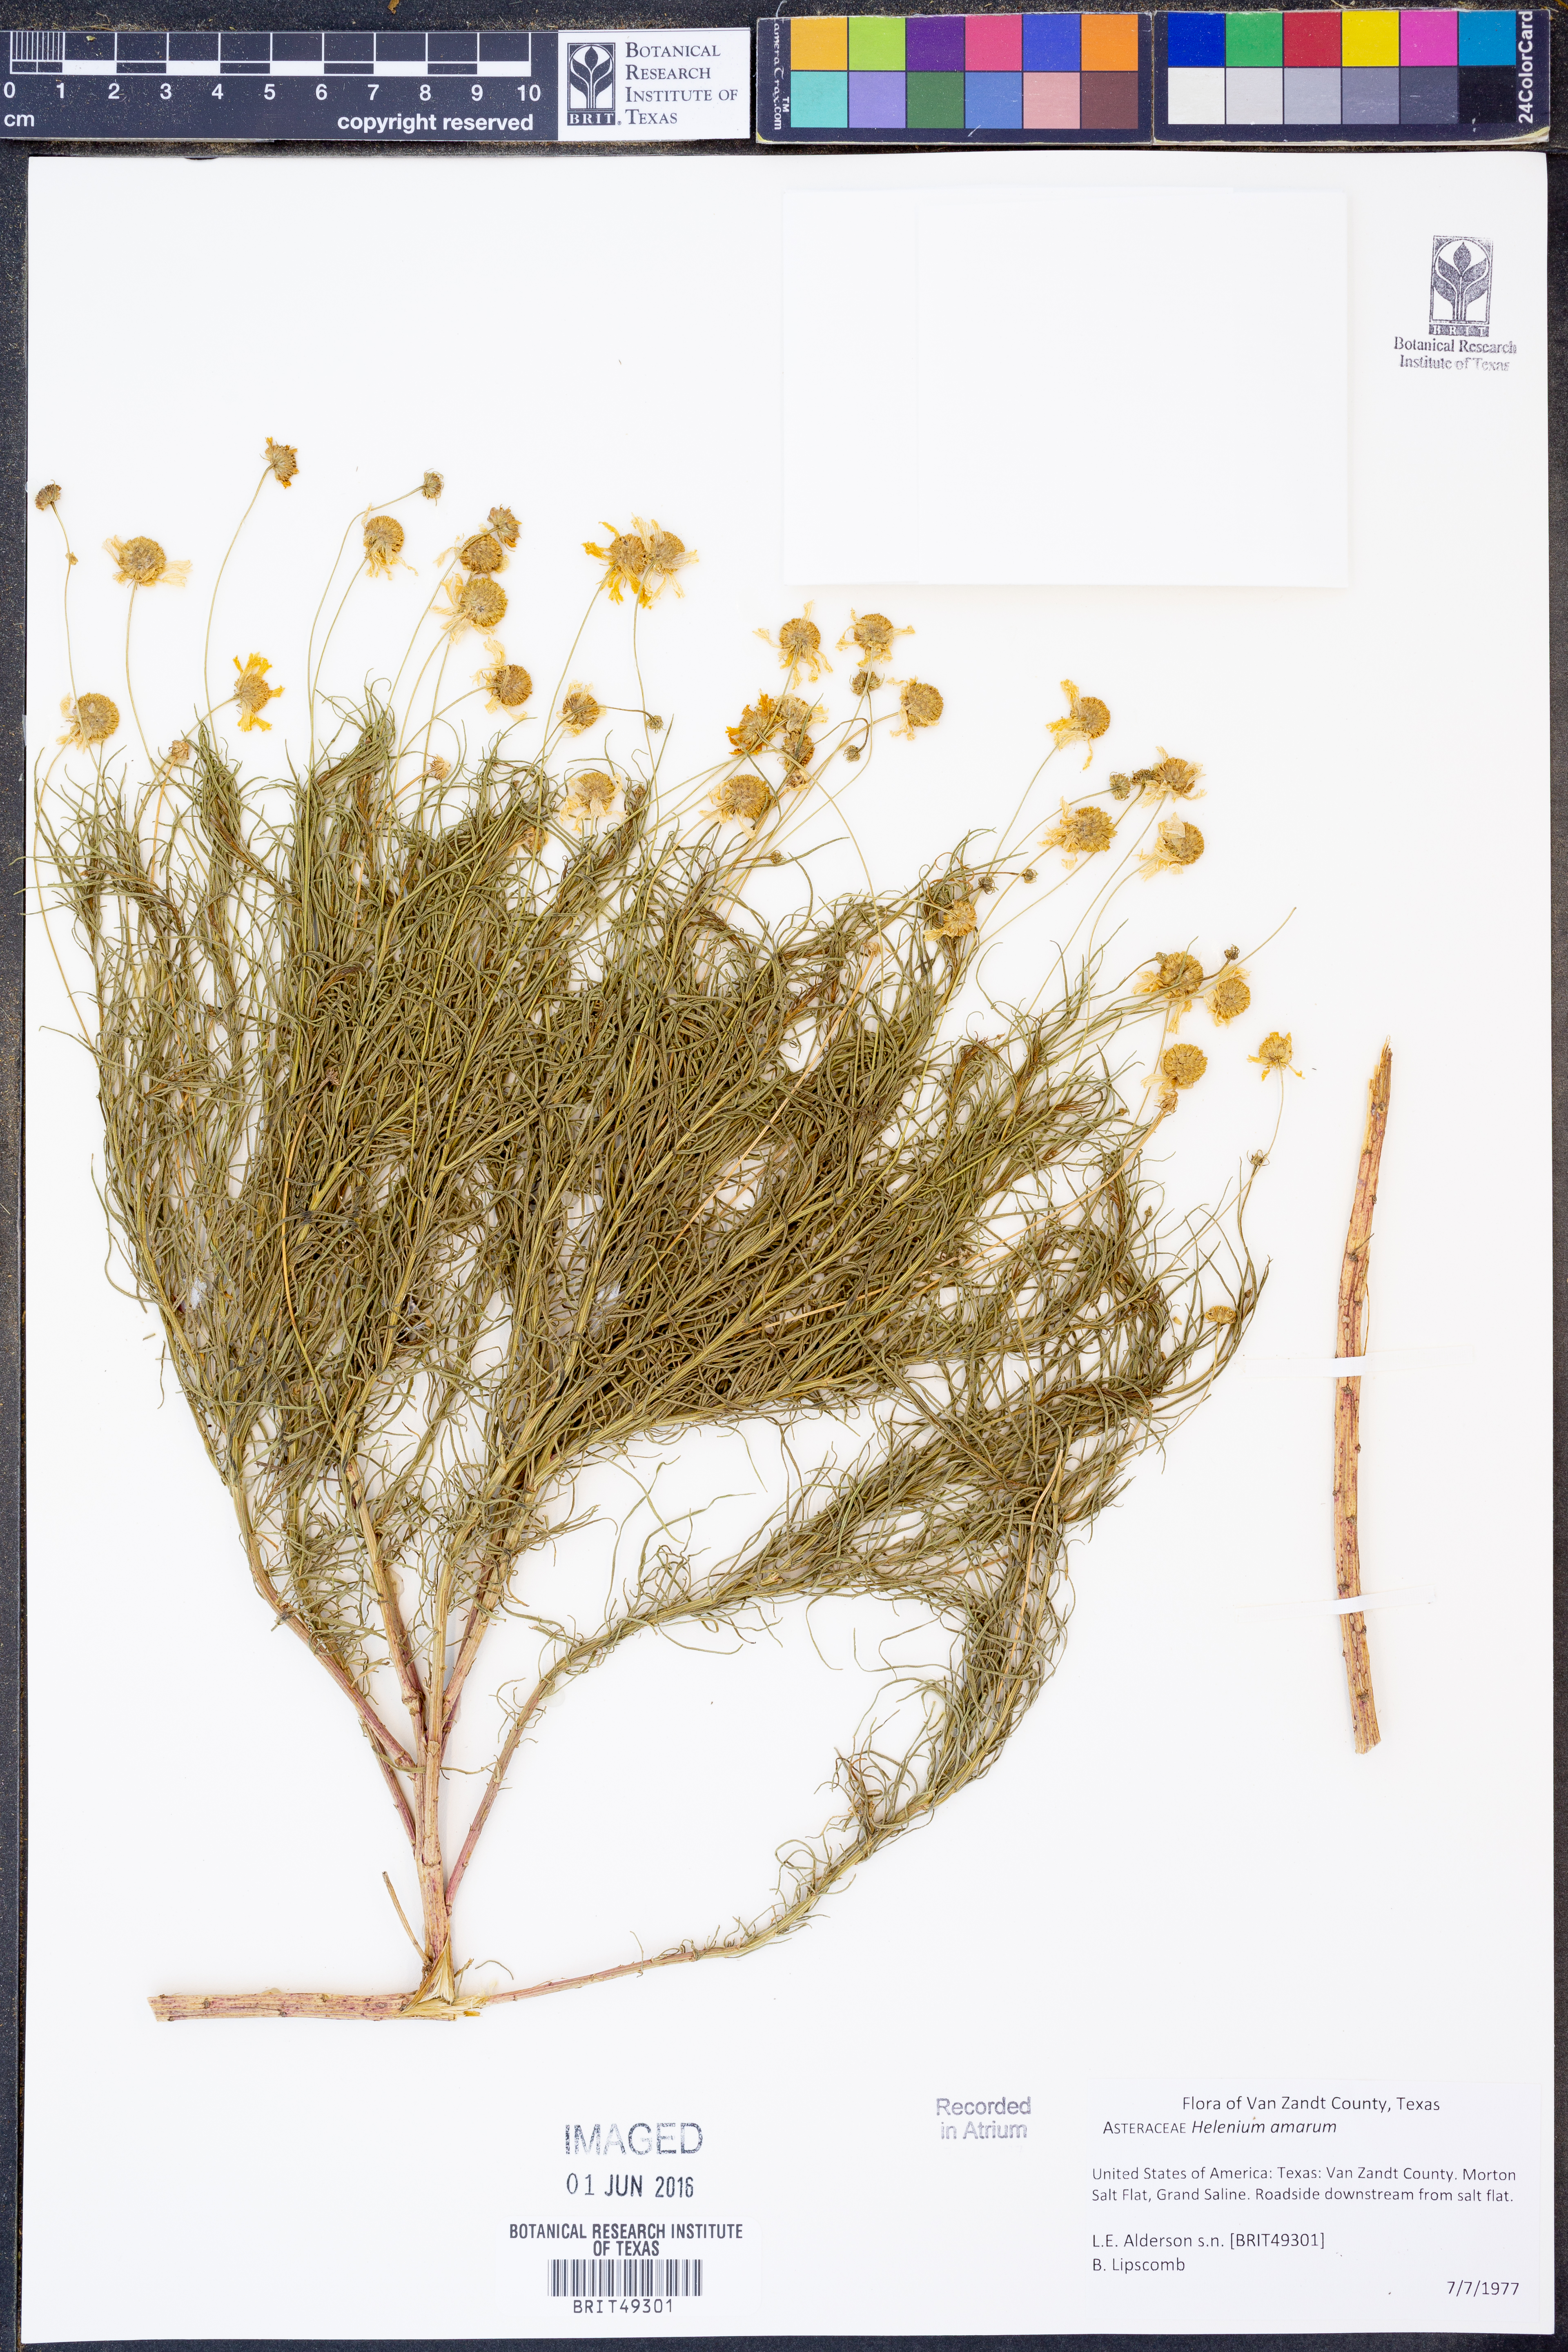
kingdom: Plantae
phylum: Tracheophyta
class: Magnoliopsida
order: Asterales
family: Asteraceae
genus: Helenium
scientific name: Helenium amarum
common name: Bitter sneezeweed
